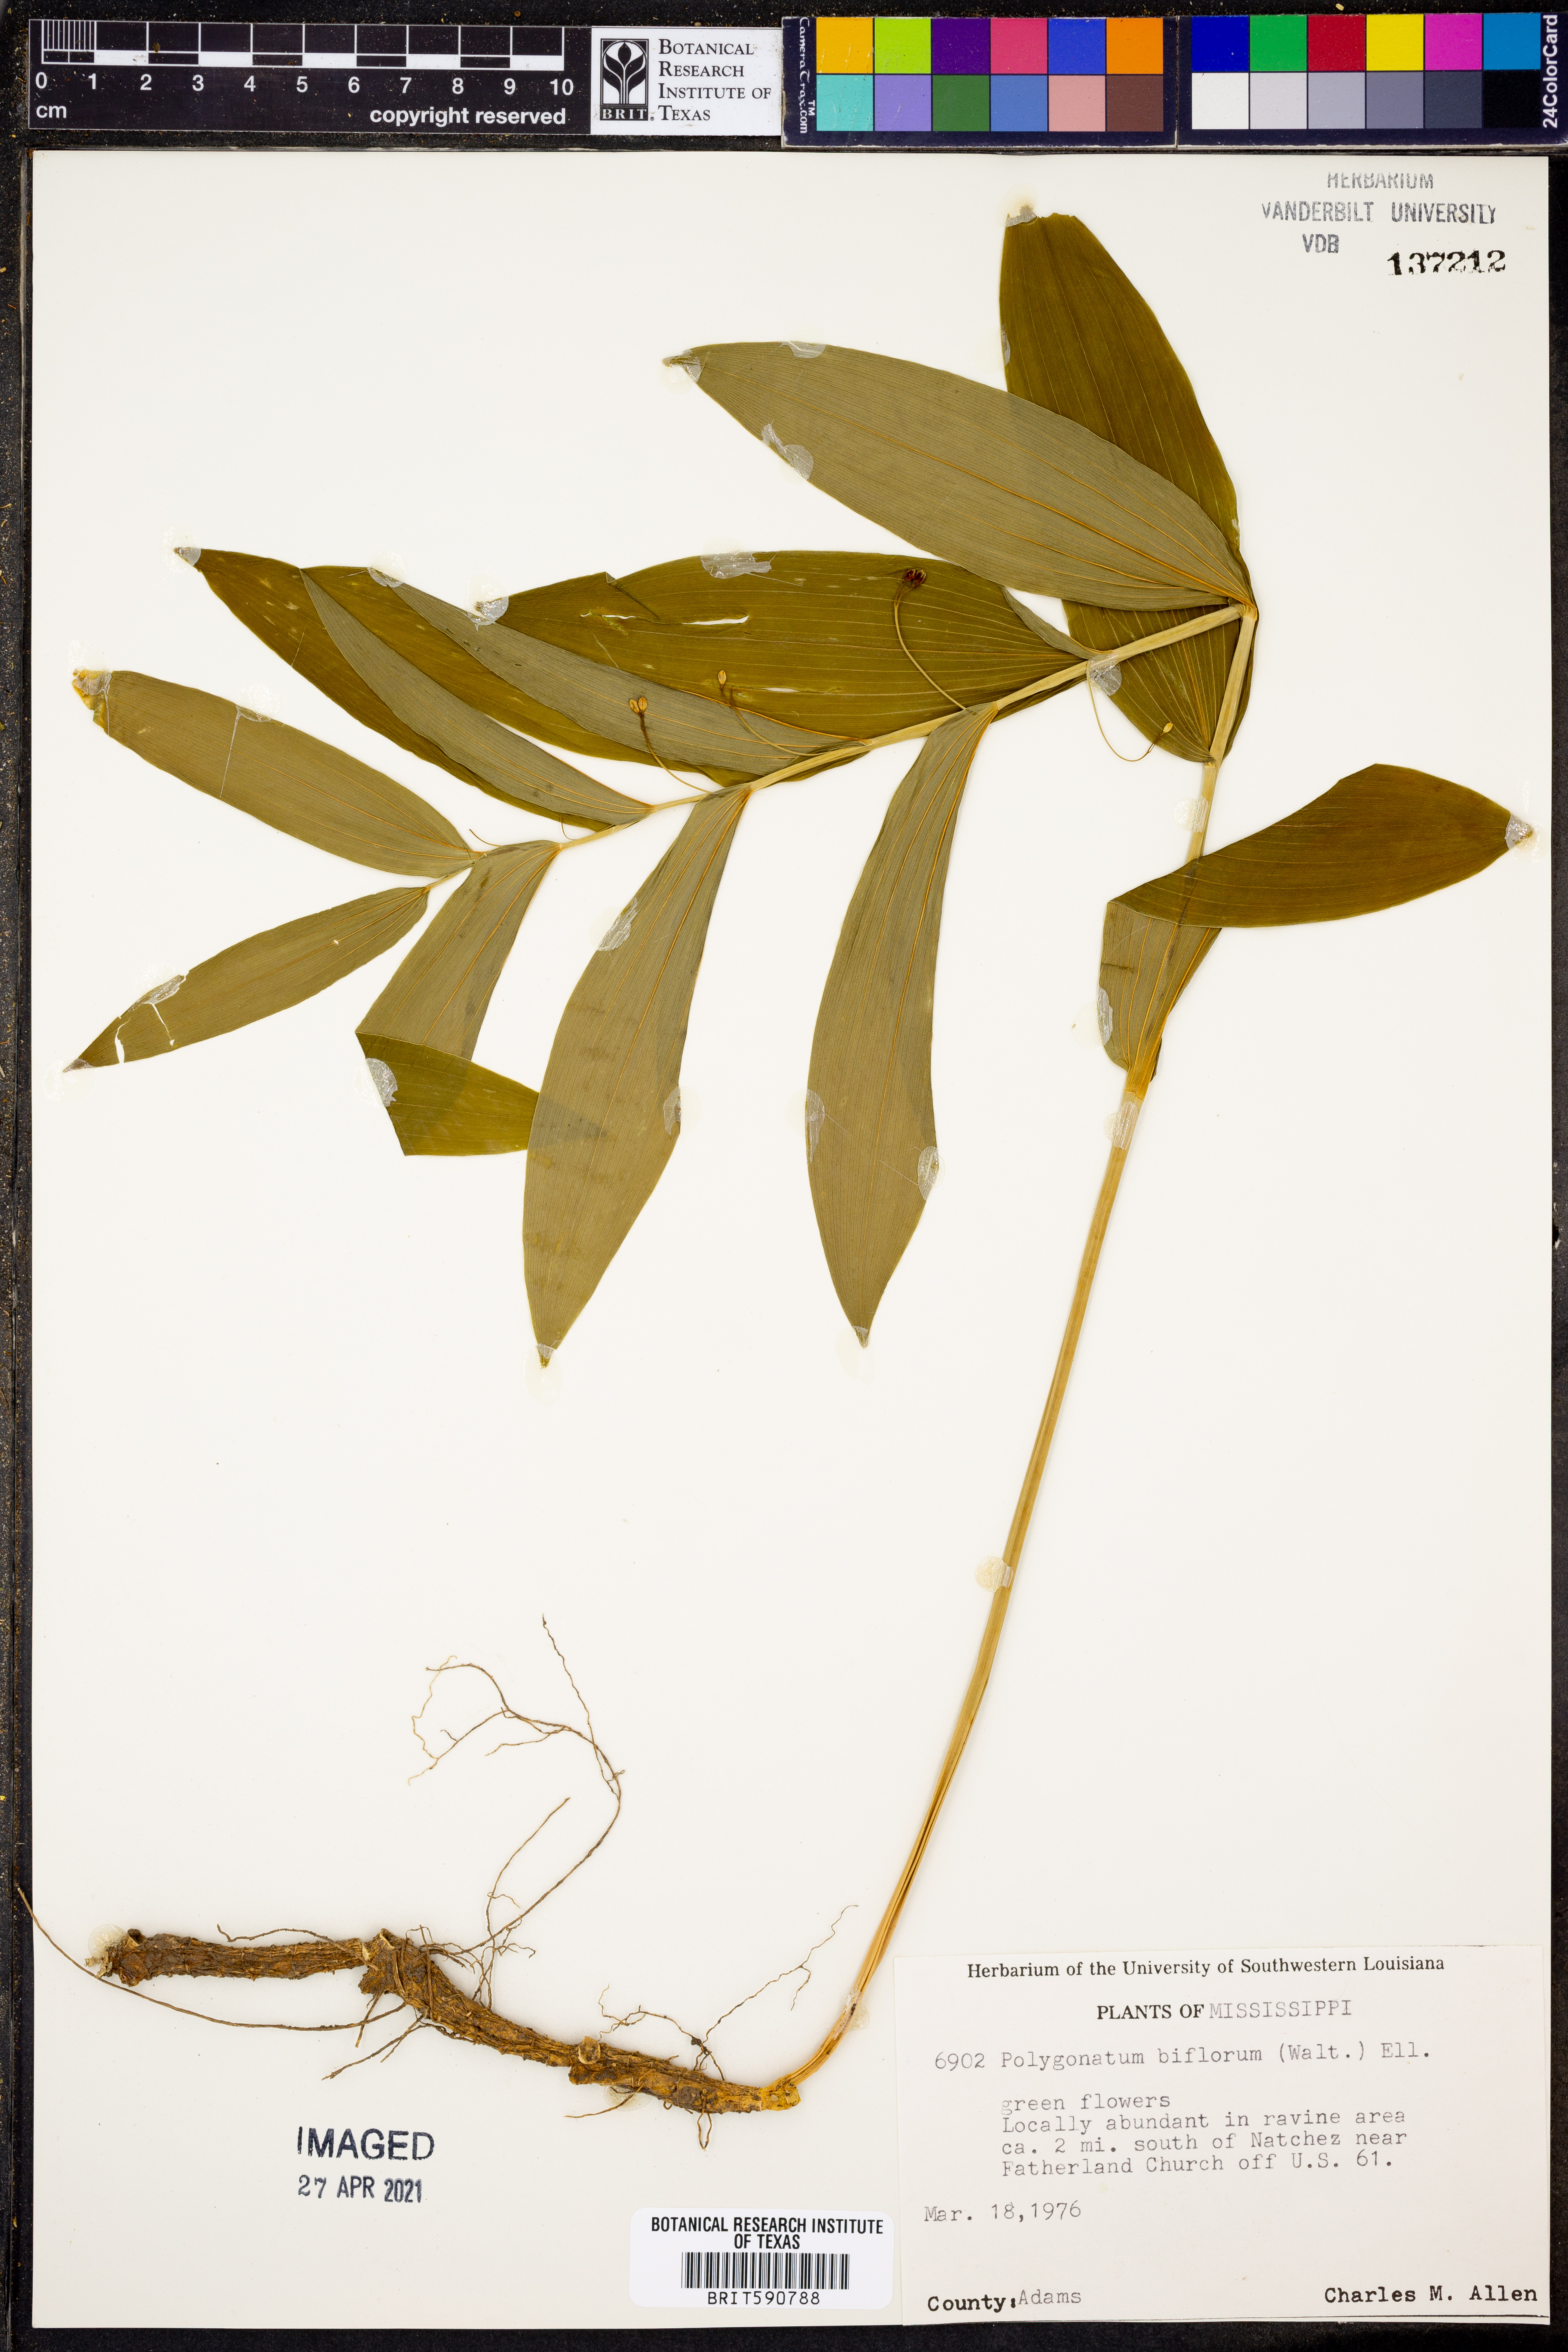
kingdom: Plantae
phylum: Tracheophyta
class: Liliopsida
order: Asparagales
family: Asparagaceae
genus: Polygonatum
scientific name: Polygonatum biflorum
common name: American solomon's-seal
